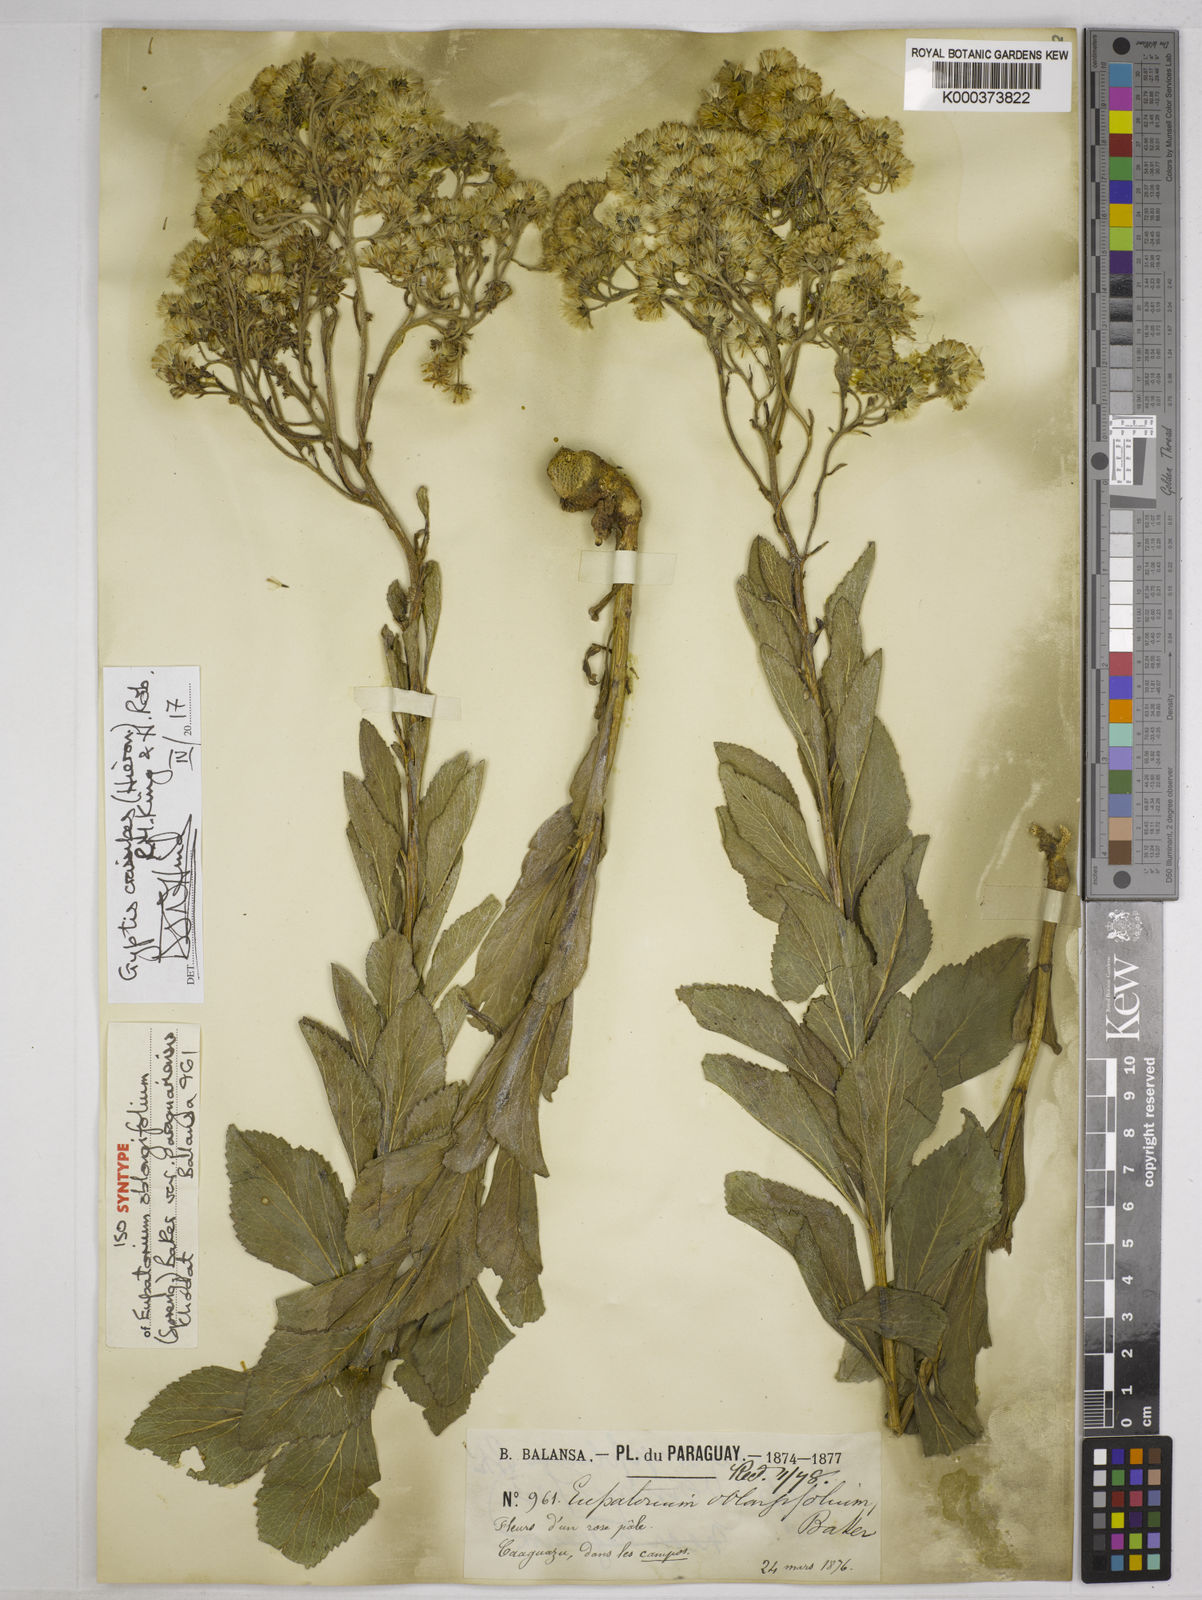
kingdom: Plantae
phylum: Tracheophyta
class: Magnoliopsida
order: Asterales
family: Asteraceae
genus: Gyptis
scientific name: Gyptis crassipes
